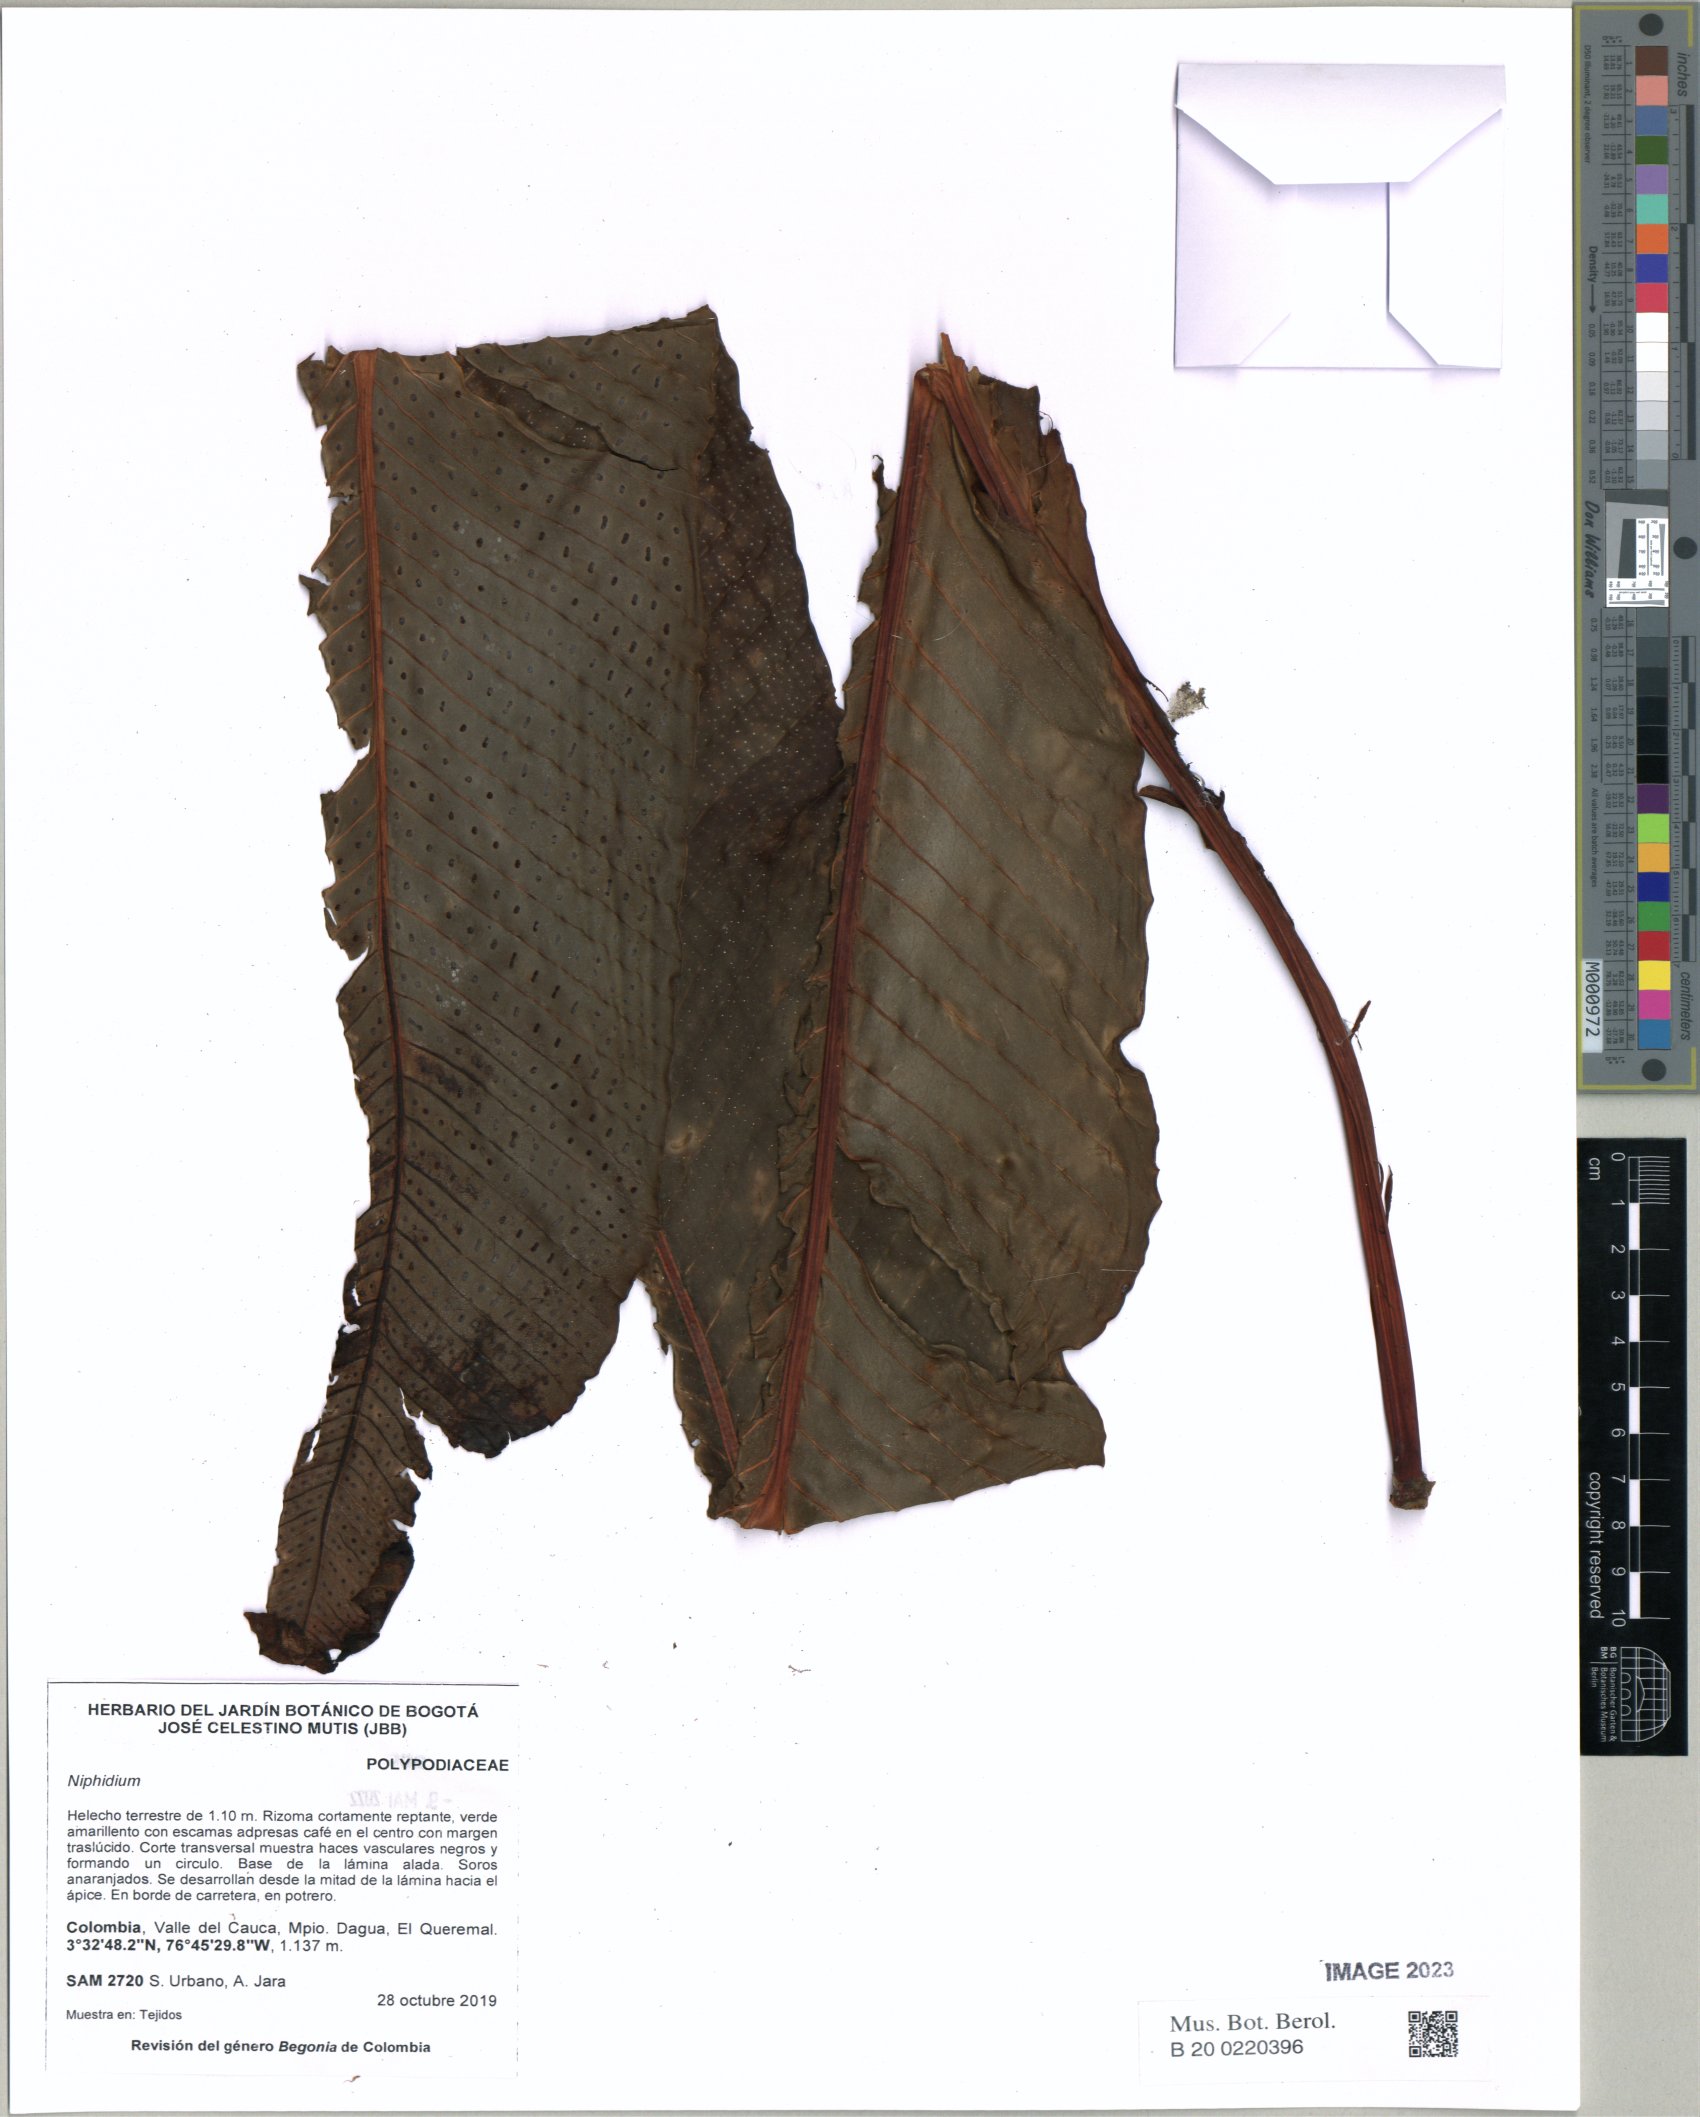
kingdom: Plantae
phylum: Tracheophyta
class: Polypodiopsida
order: Polypodiales
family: Polypodiaceae
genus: Niphidium
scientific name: Niphidium
